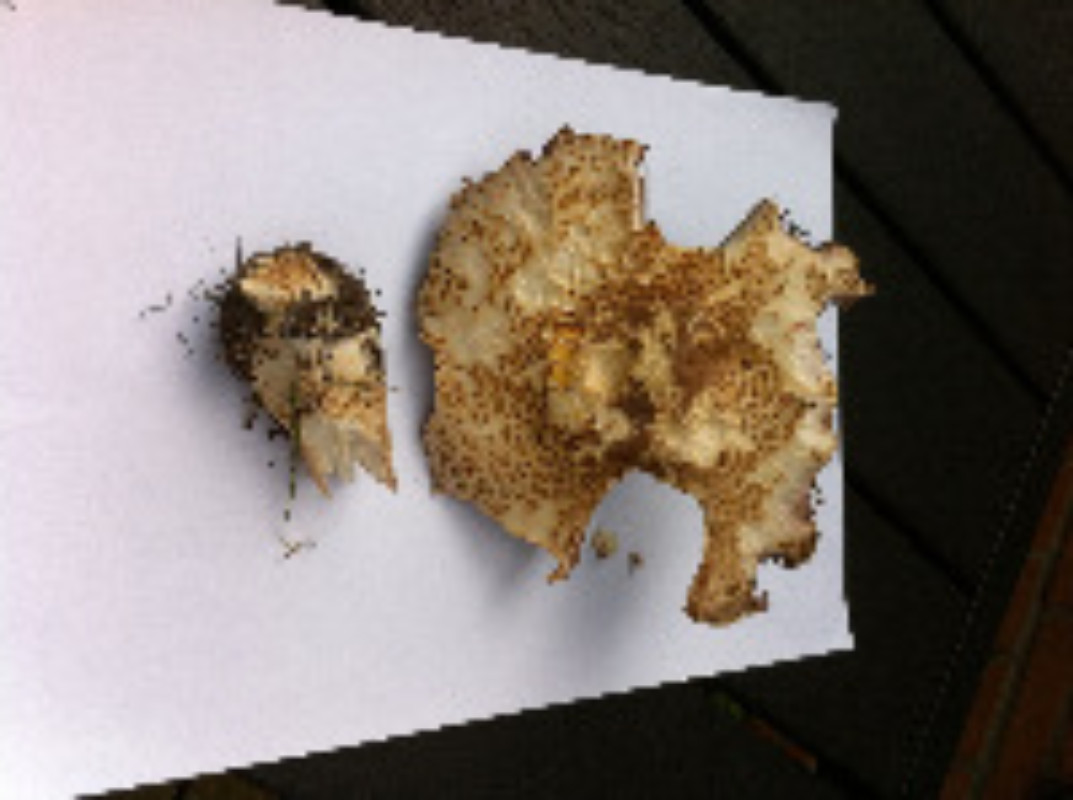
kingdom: Fungi
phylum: Basidiomycota
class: Agaricomycetes
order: Agaricales
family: Agaricaceae
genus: Agaricus
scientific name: Agaricus augustus
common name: prægtig champignon
